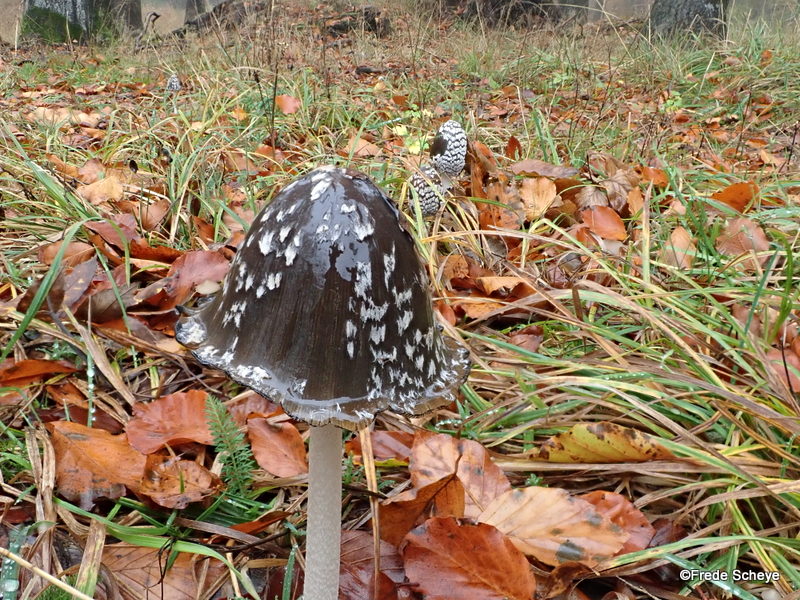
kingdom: Fungi
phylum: Basidiomycota
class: Agaricomycetes
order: Agaricales
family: Psathyrellaceae
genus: Coprinopsis
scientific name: Coprinopsis picacea
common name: skade-blækhat
